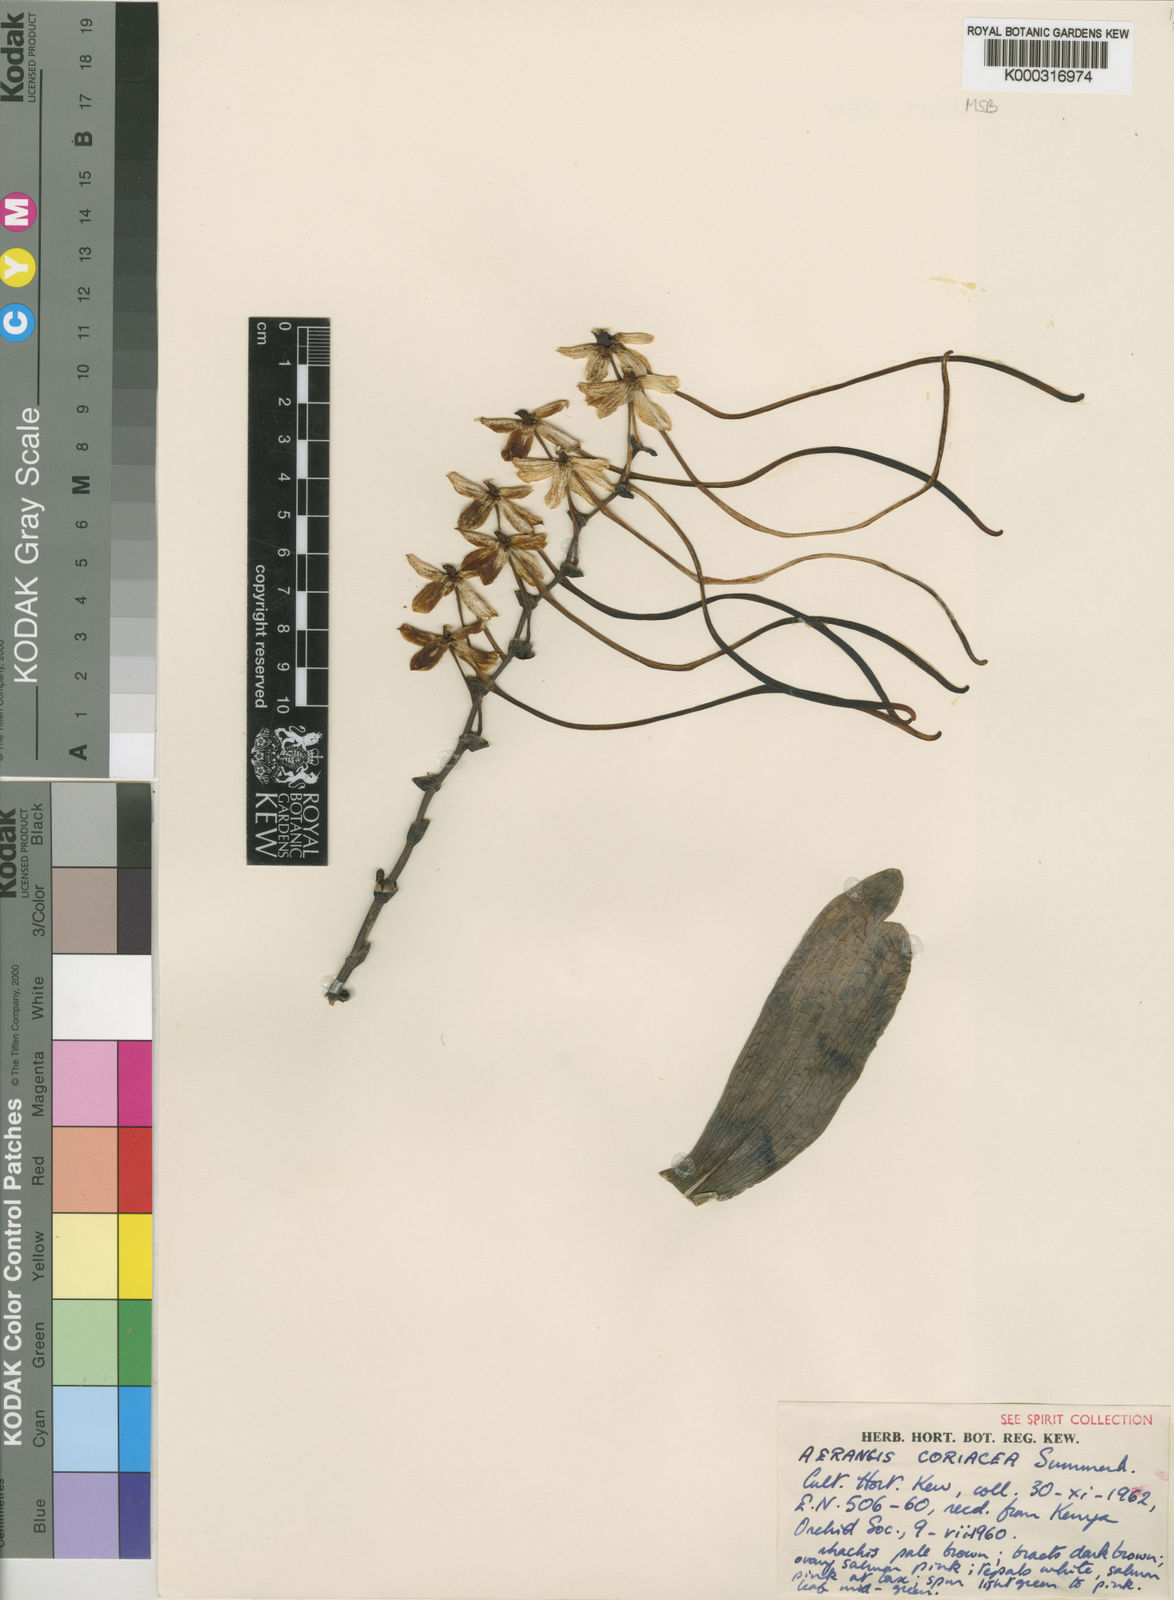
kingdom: Plantae
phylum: Tracheophyta
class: Liliopsida
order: Asparagales
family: Orchidaceae
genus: Aerangis
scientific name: Aerangis coriacea
